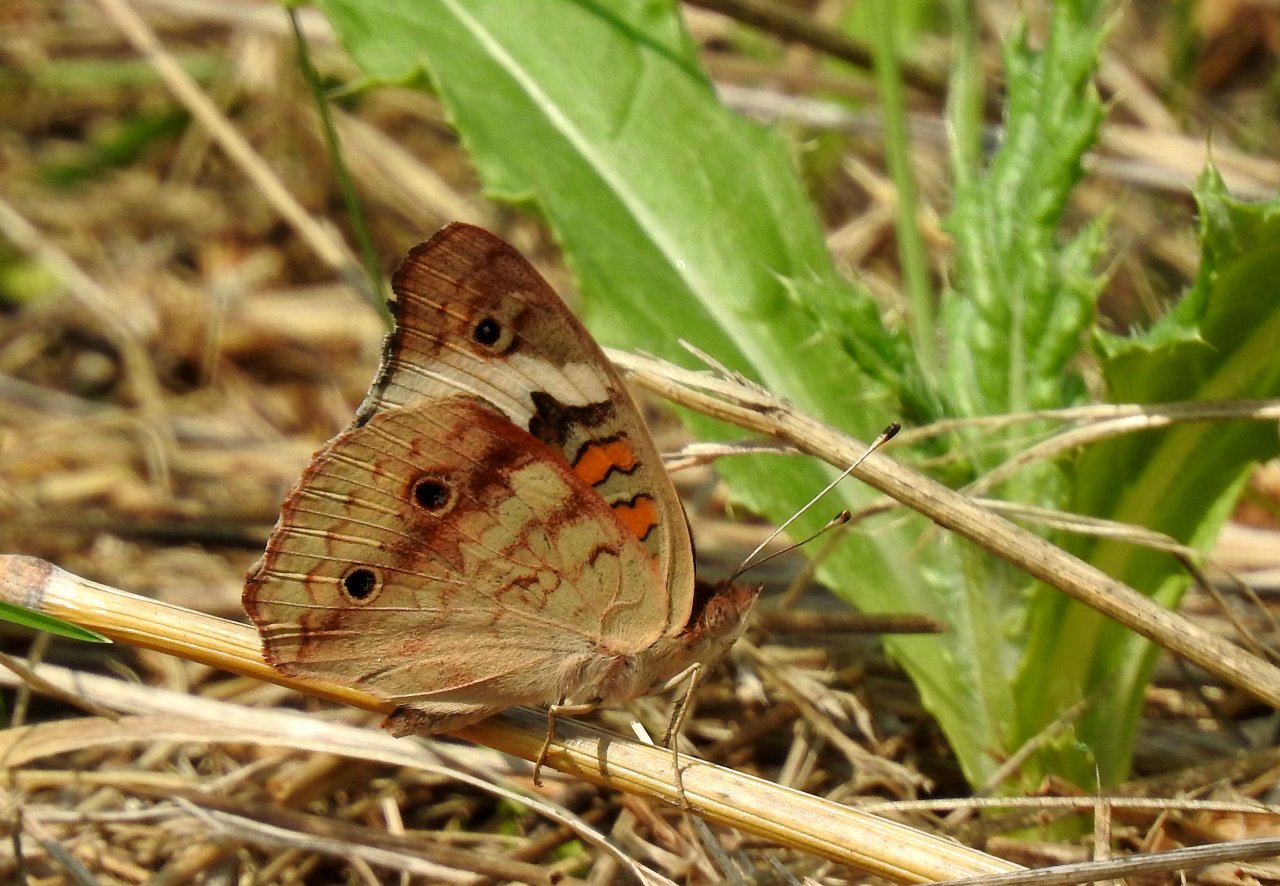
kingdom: Animalia
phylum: Arthropoda
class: Insecta
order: Lepidoptera
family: Nymphalidae
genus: Junonia
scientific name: Junonia coenia
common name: Common Buckeye
